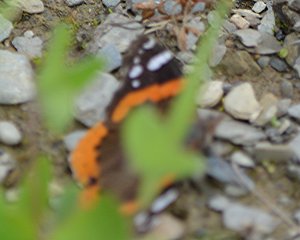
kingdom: Animalia
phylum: Arthropoda
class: Insecta
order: Lepidoptera
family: Nymphalidae
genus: Vanessa
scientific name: Vanessa atalanta
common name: Red Admiral
